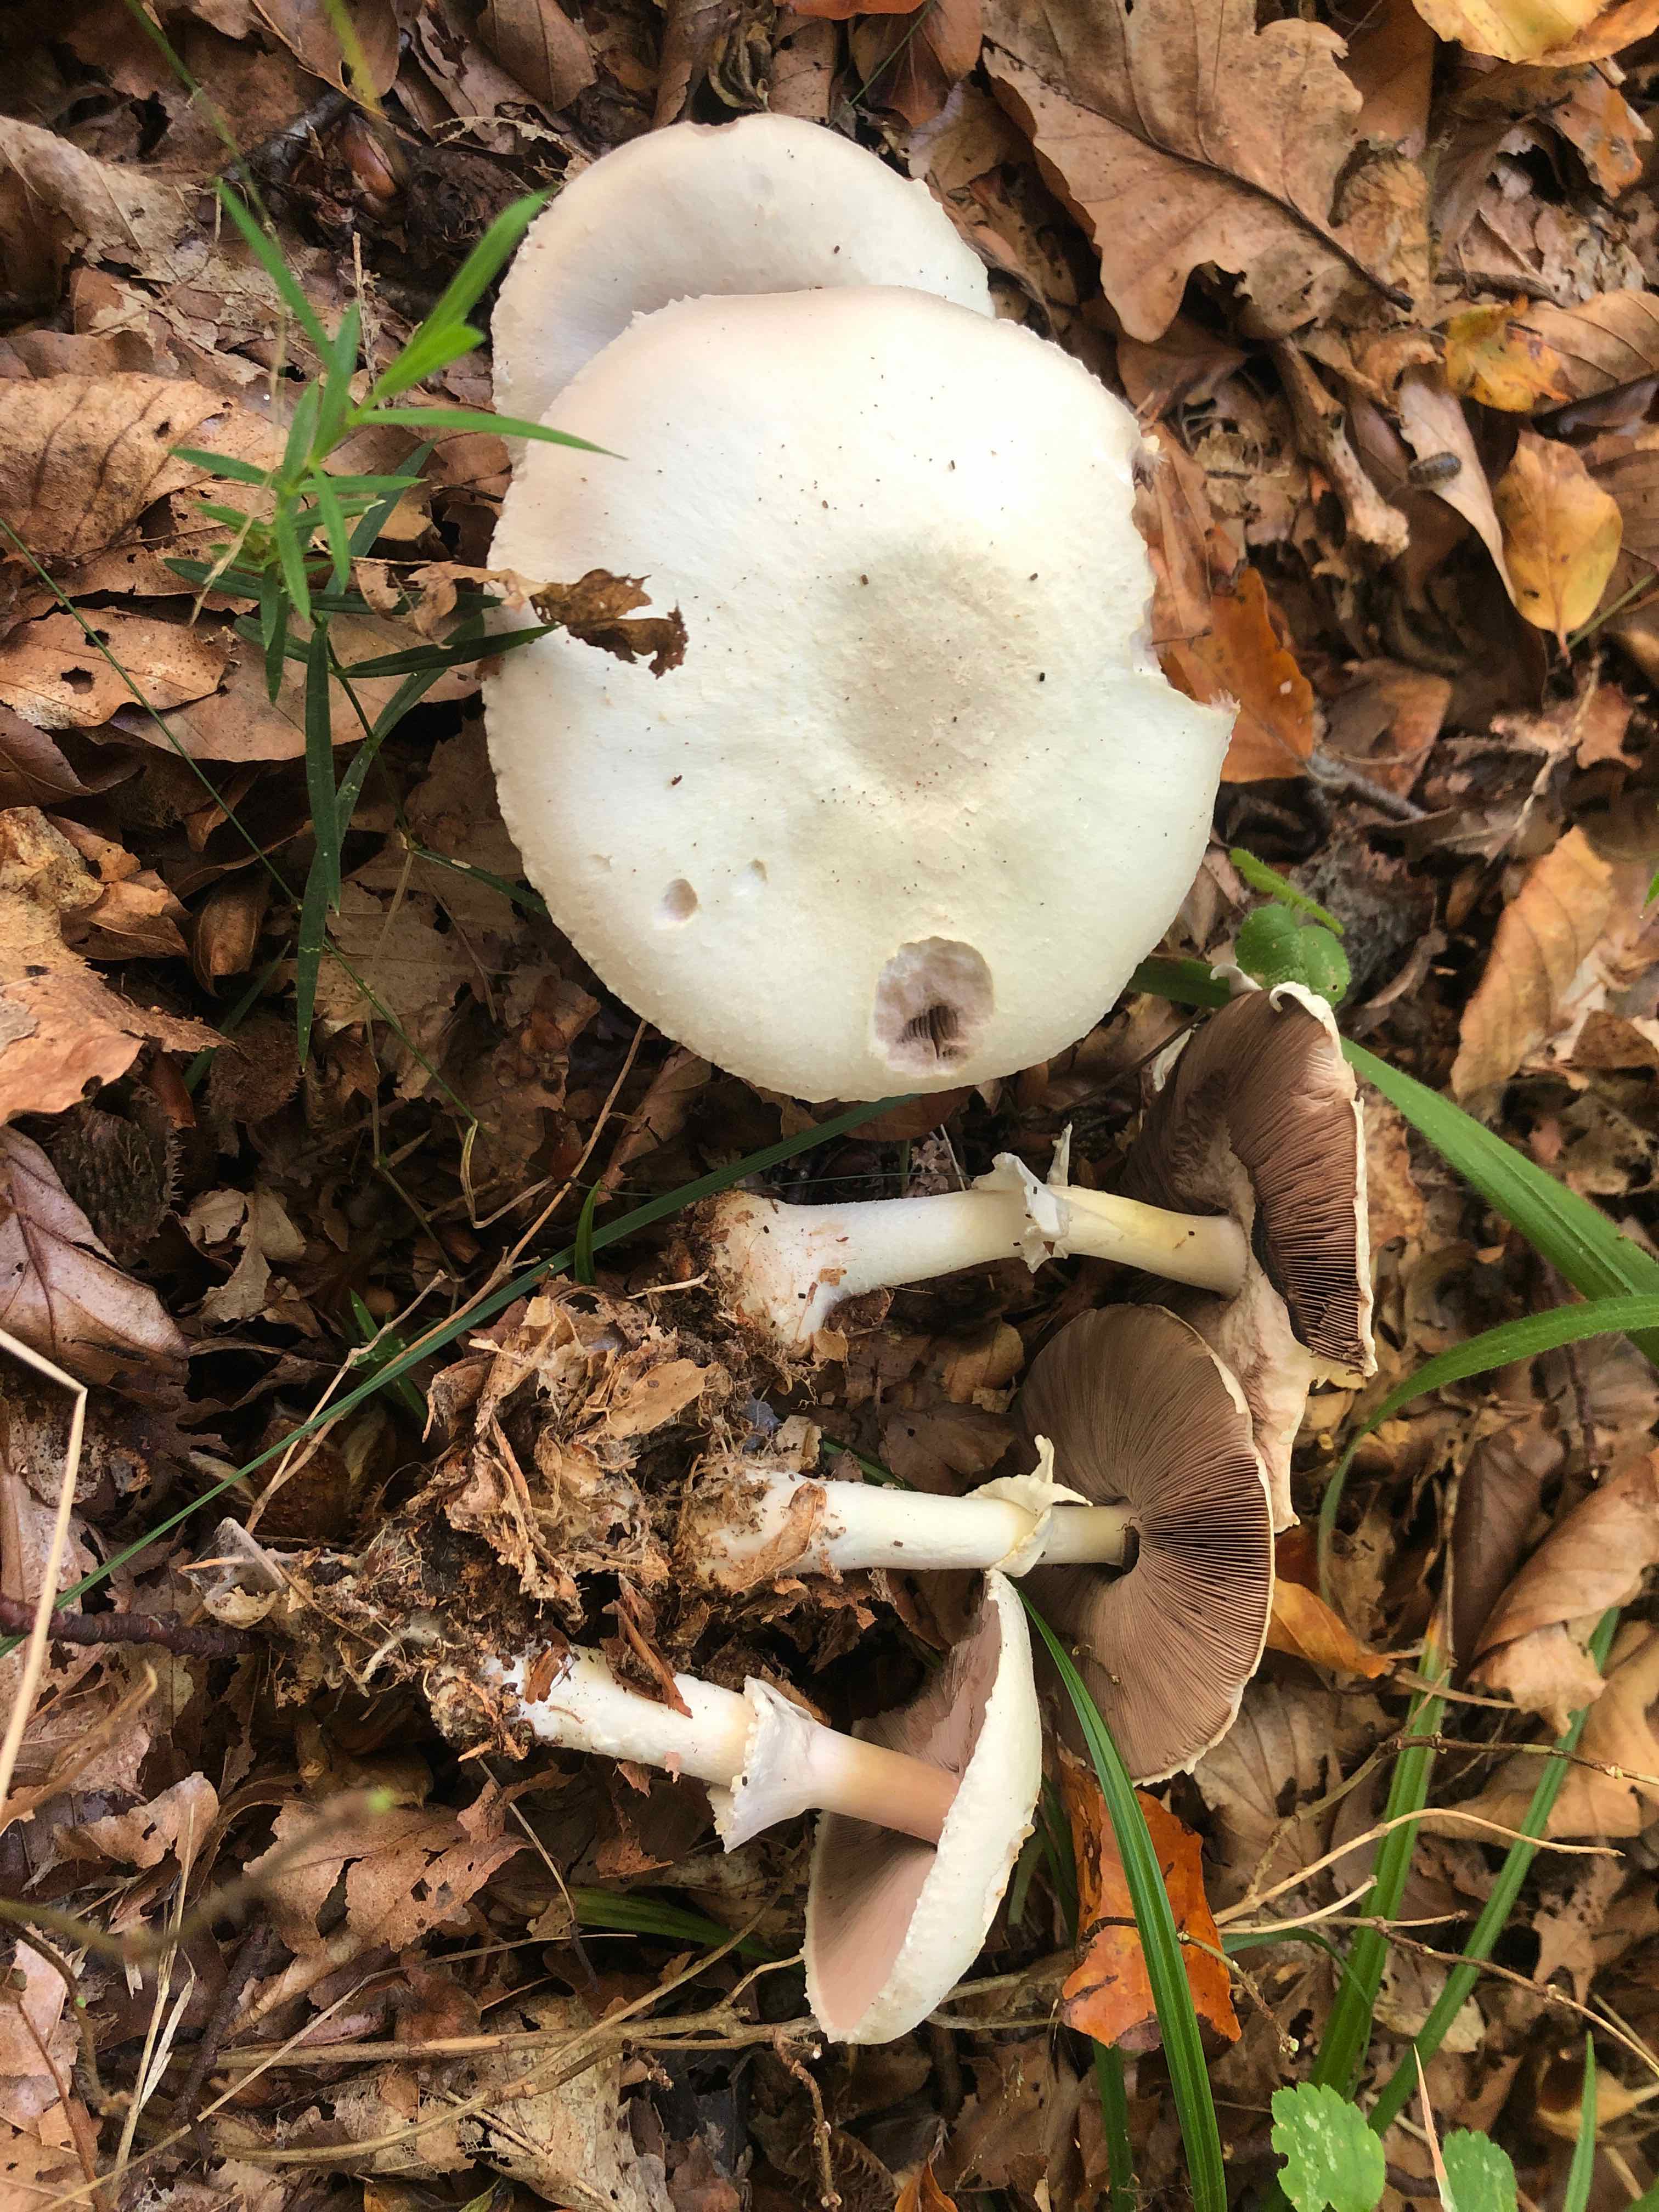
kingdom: Fungi
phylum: Basidiomycota
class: Agaricomycetes
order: Agaricales
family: Agaricaceae
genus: Agaricus
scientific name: Agaricus sylvicola
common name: gulhvid champignon
